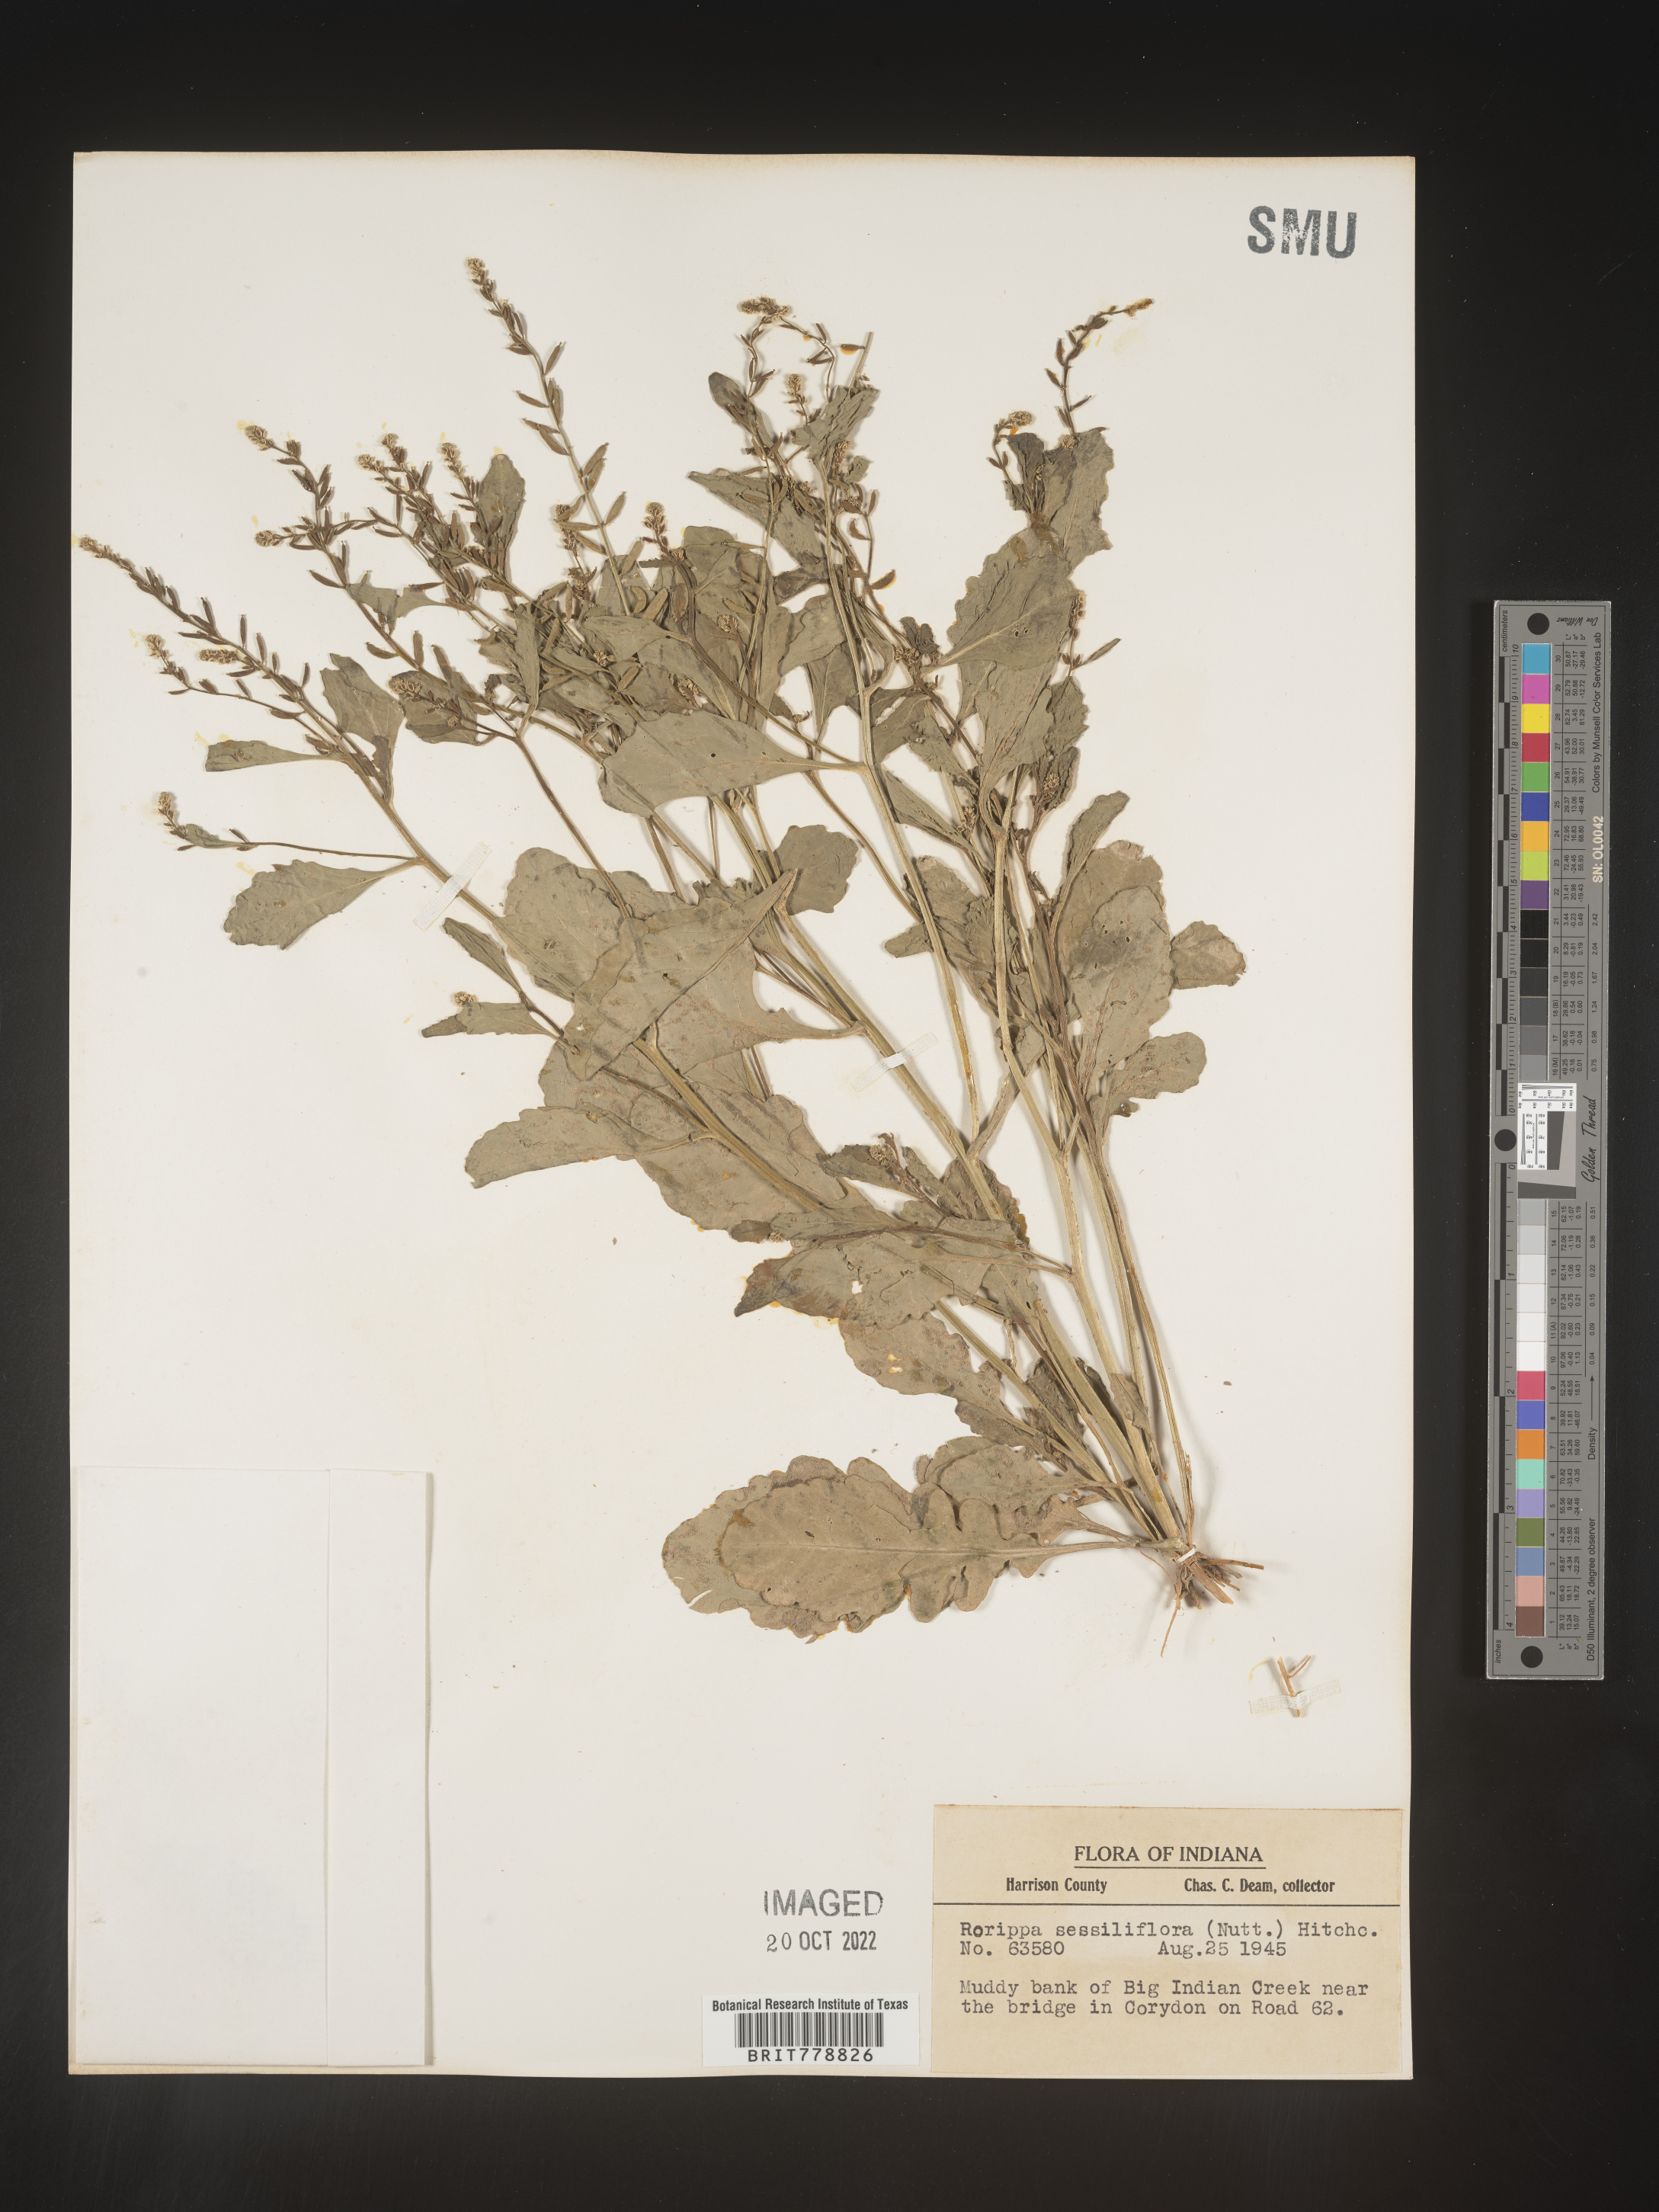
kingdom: Plantae
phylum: Tracheophyta
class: Magnoliopsida
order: Brassicales
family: Brassicaceae
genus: Rorippa
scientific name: Rorippa sessiliflora
